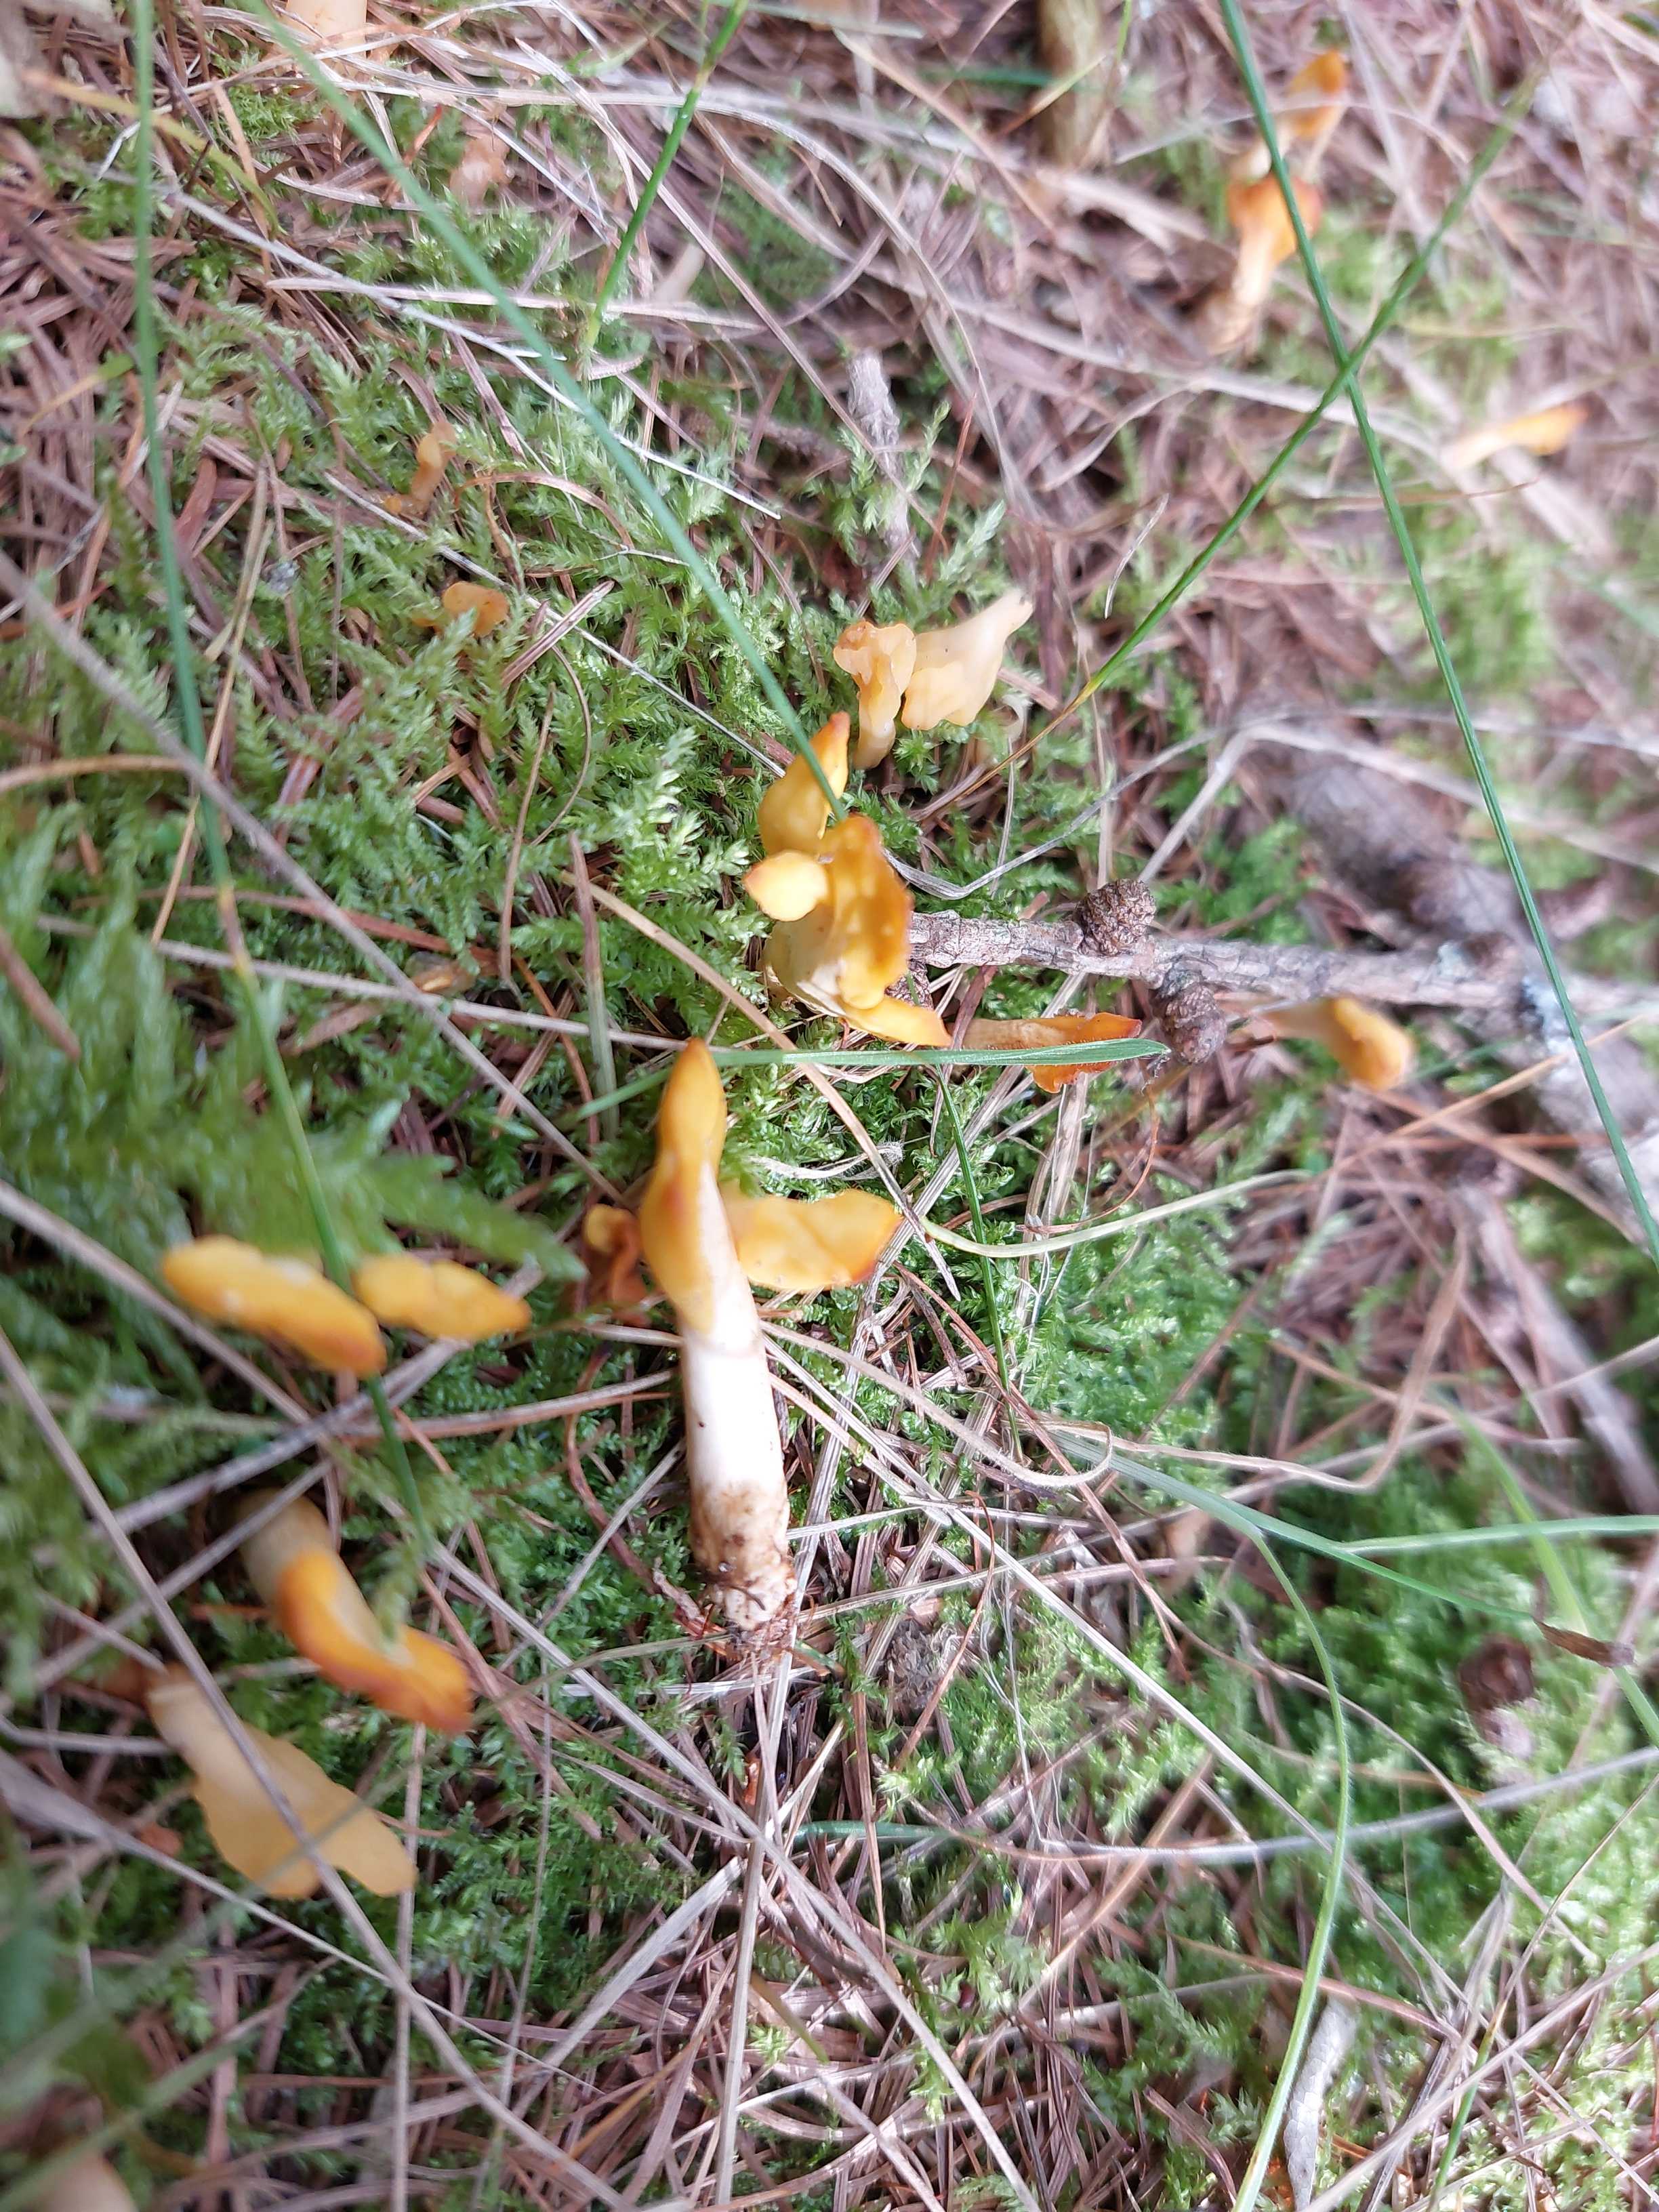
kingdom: Fungi
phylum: Ascomycota
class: Leotiomycetes
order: Rhytismatales
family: Cudoniaceae
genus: Spathularia
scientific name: Spathularia flavida
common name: gul spatelsvamp
